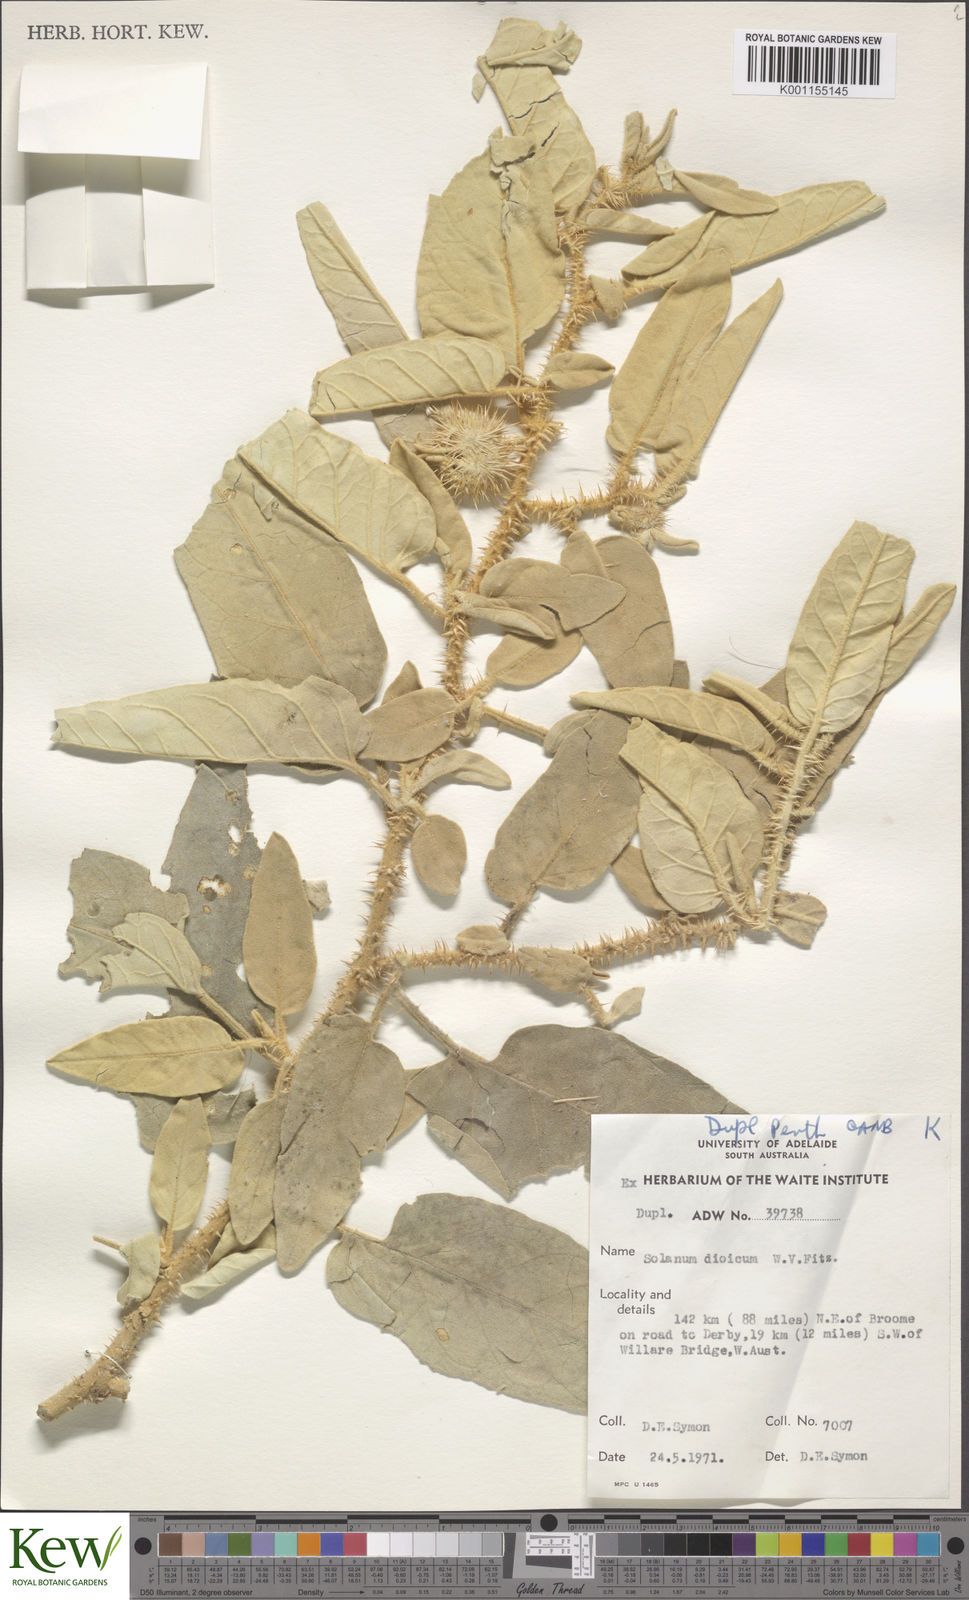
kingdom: Plantae
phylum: Tracheophyta
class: Magnoliopsida
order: Solanales
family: Solanaceae
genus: Solanum
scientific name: Solanum dioicum
